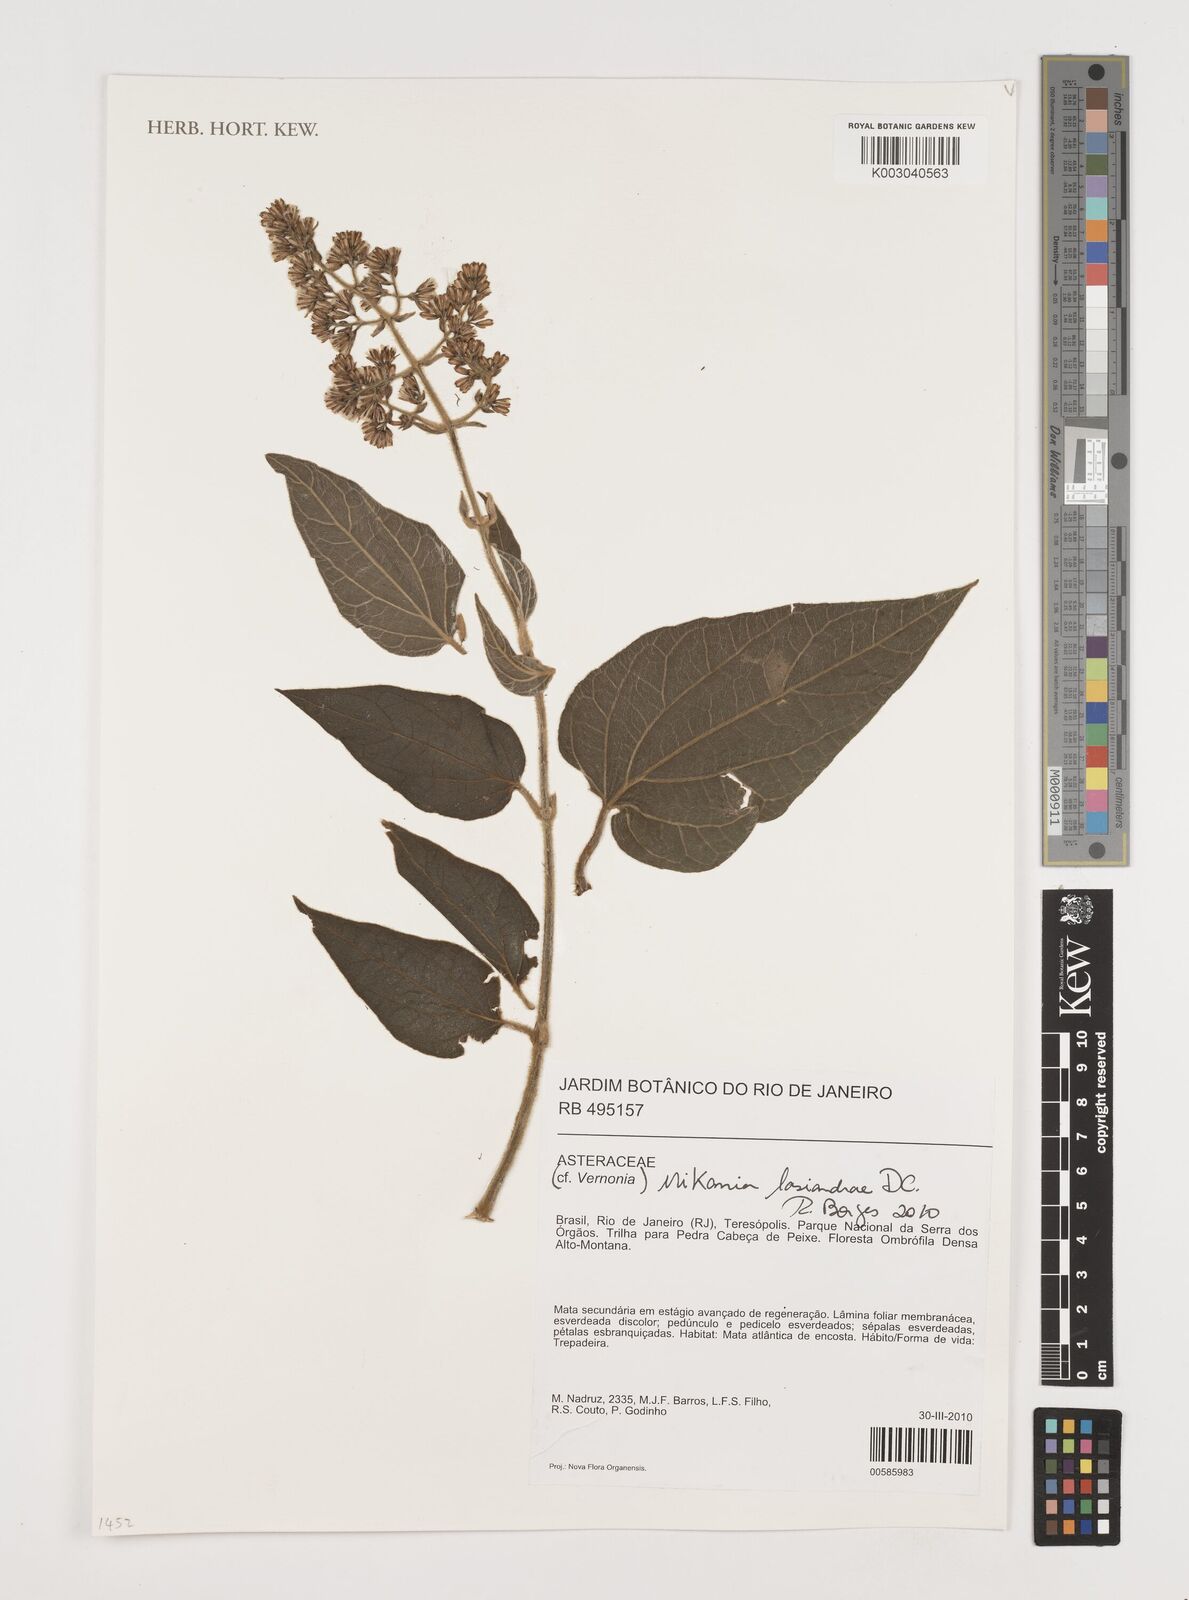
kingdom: Plantae
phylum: Tracheophyta
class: Magnoliopsida
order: Asterales
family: Asteraceae
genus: Mikania
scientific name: Mikania lasiandrae
